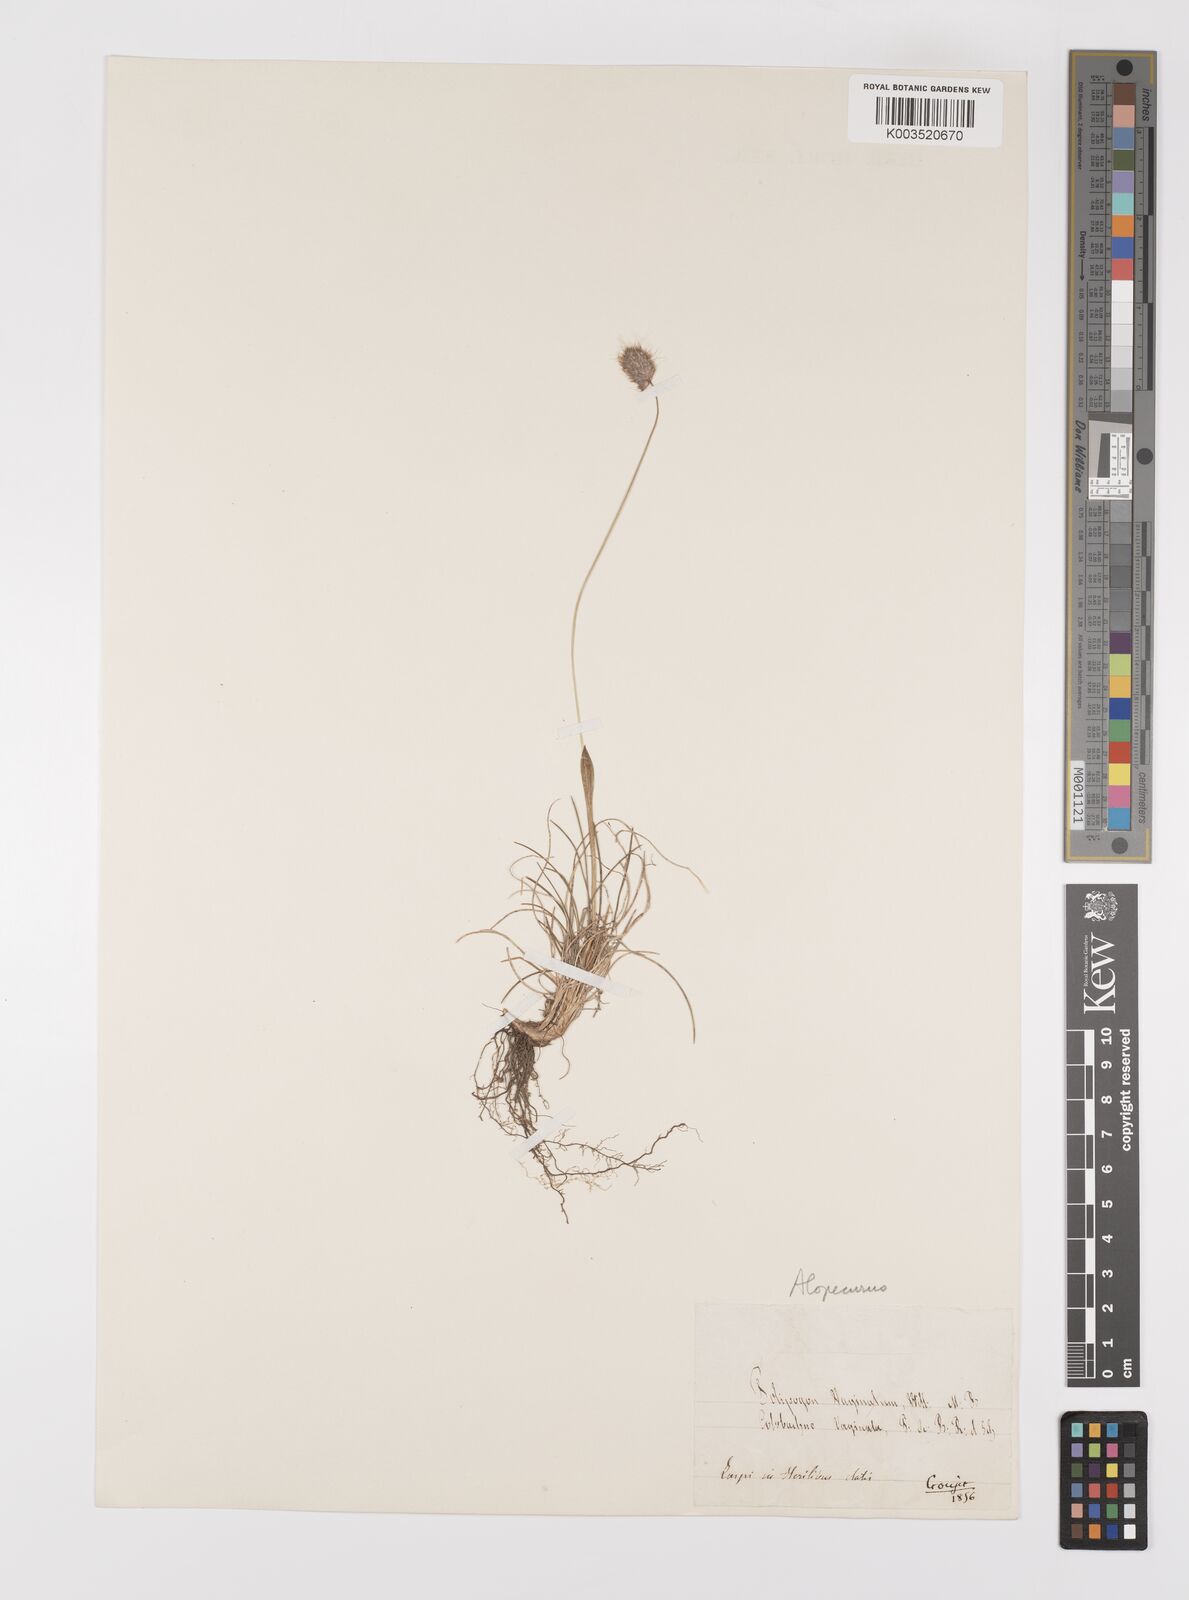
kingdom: Plantae
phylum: Tracheophyta
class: Liliopsida
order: Poales
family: Poaceae
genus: Alopecurus
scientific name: Alopecurus vaginatus
